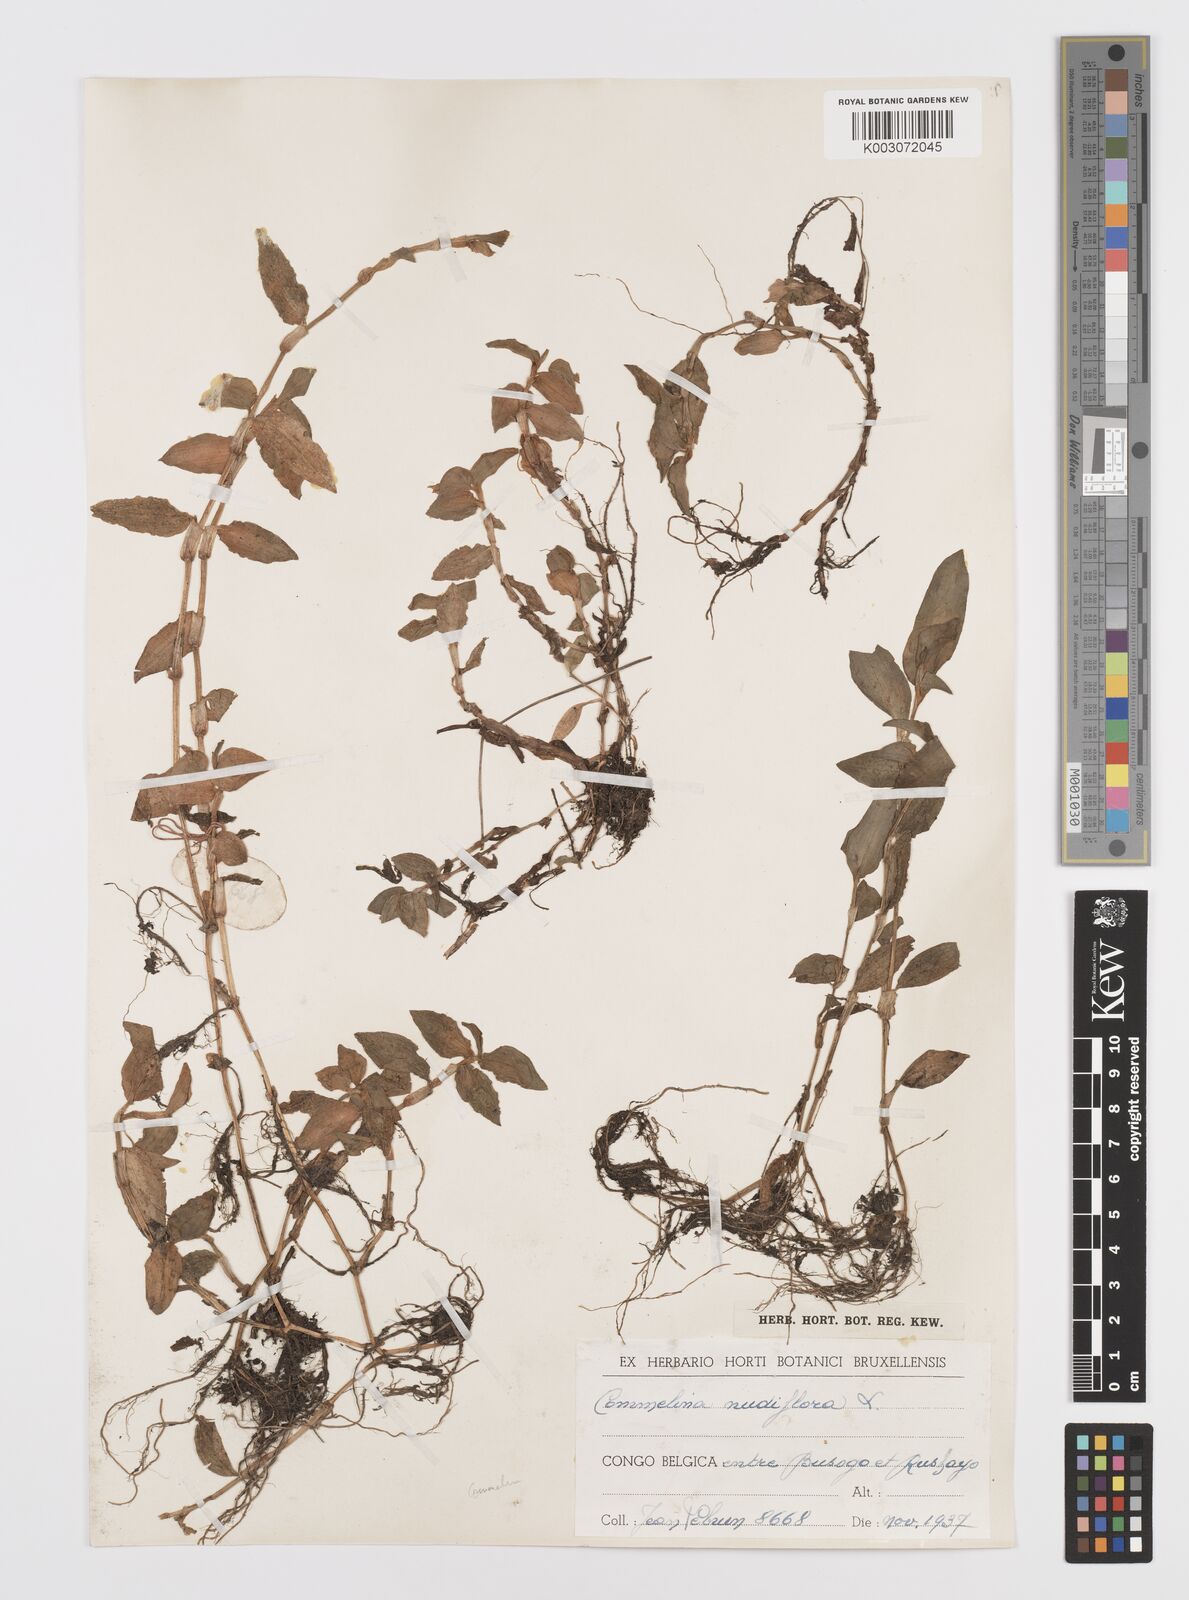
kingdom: Plantae
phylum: Tracheophyta
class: Liliopsida
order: Commelinales
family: Commelinaceae
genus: Commelina
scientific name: Commelina diffusa
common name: Climbing dayflower
